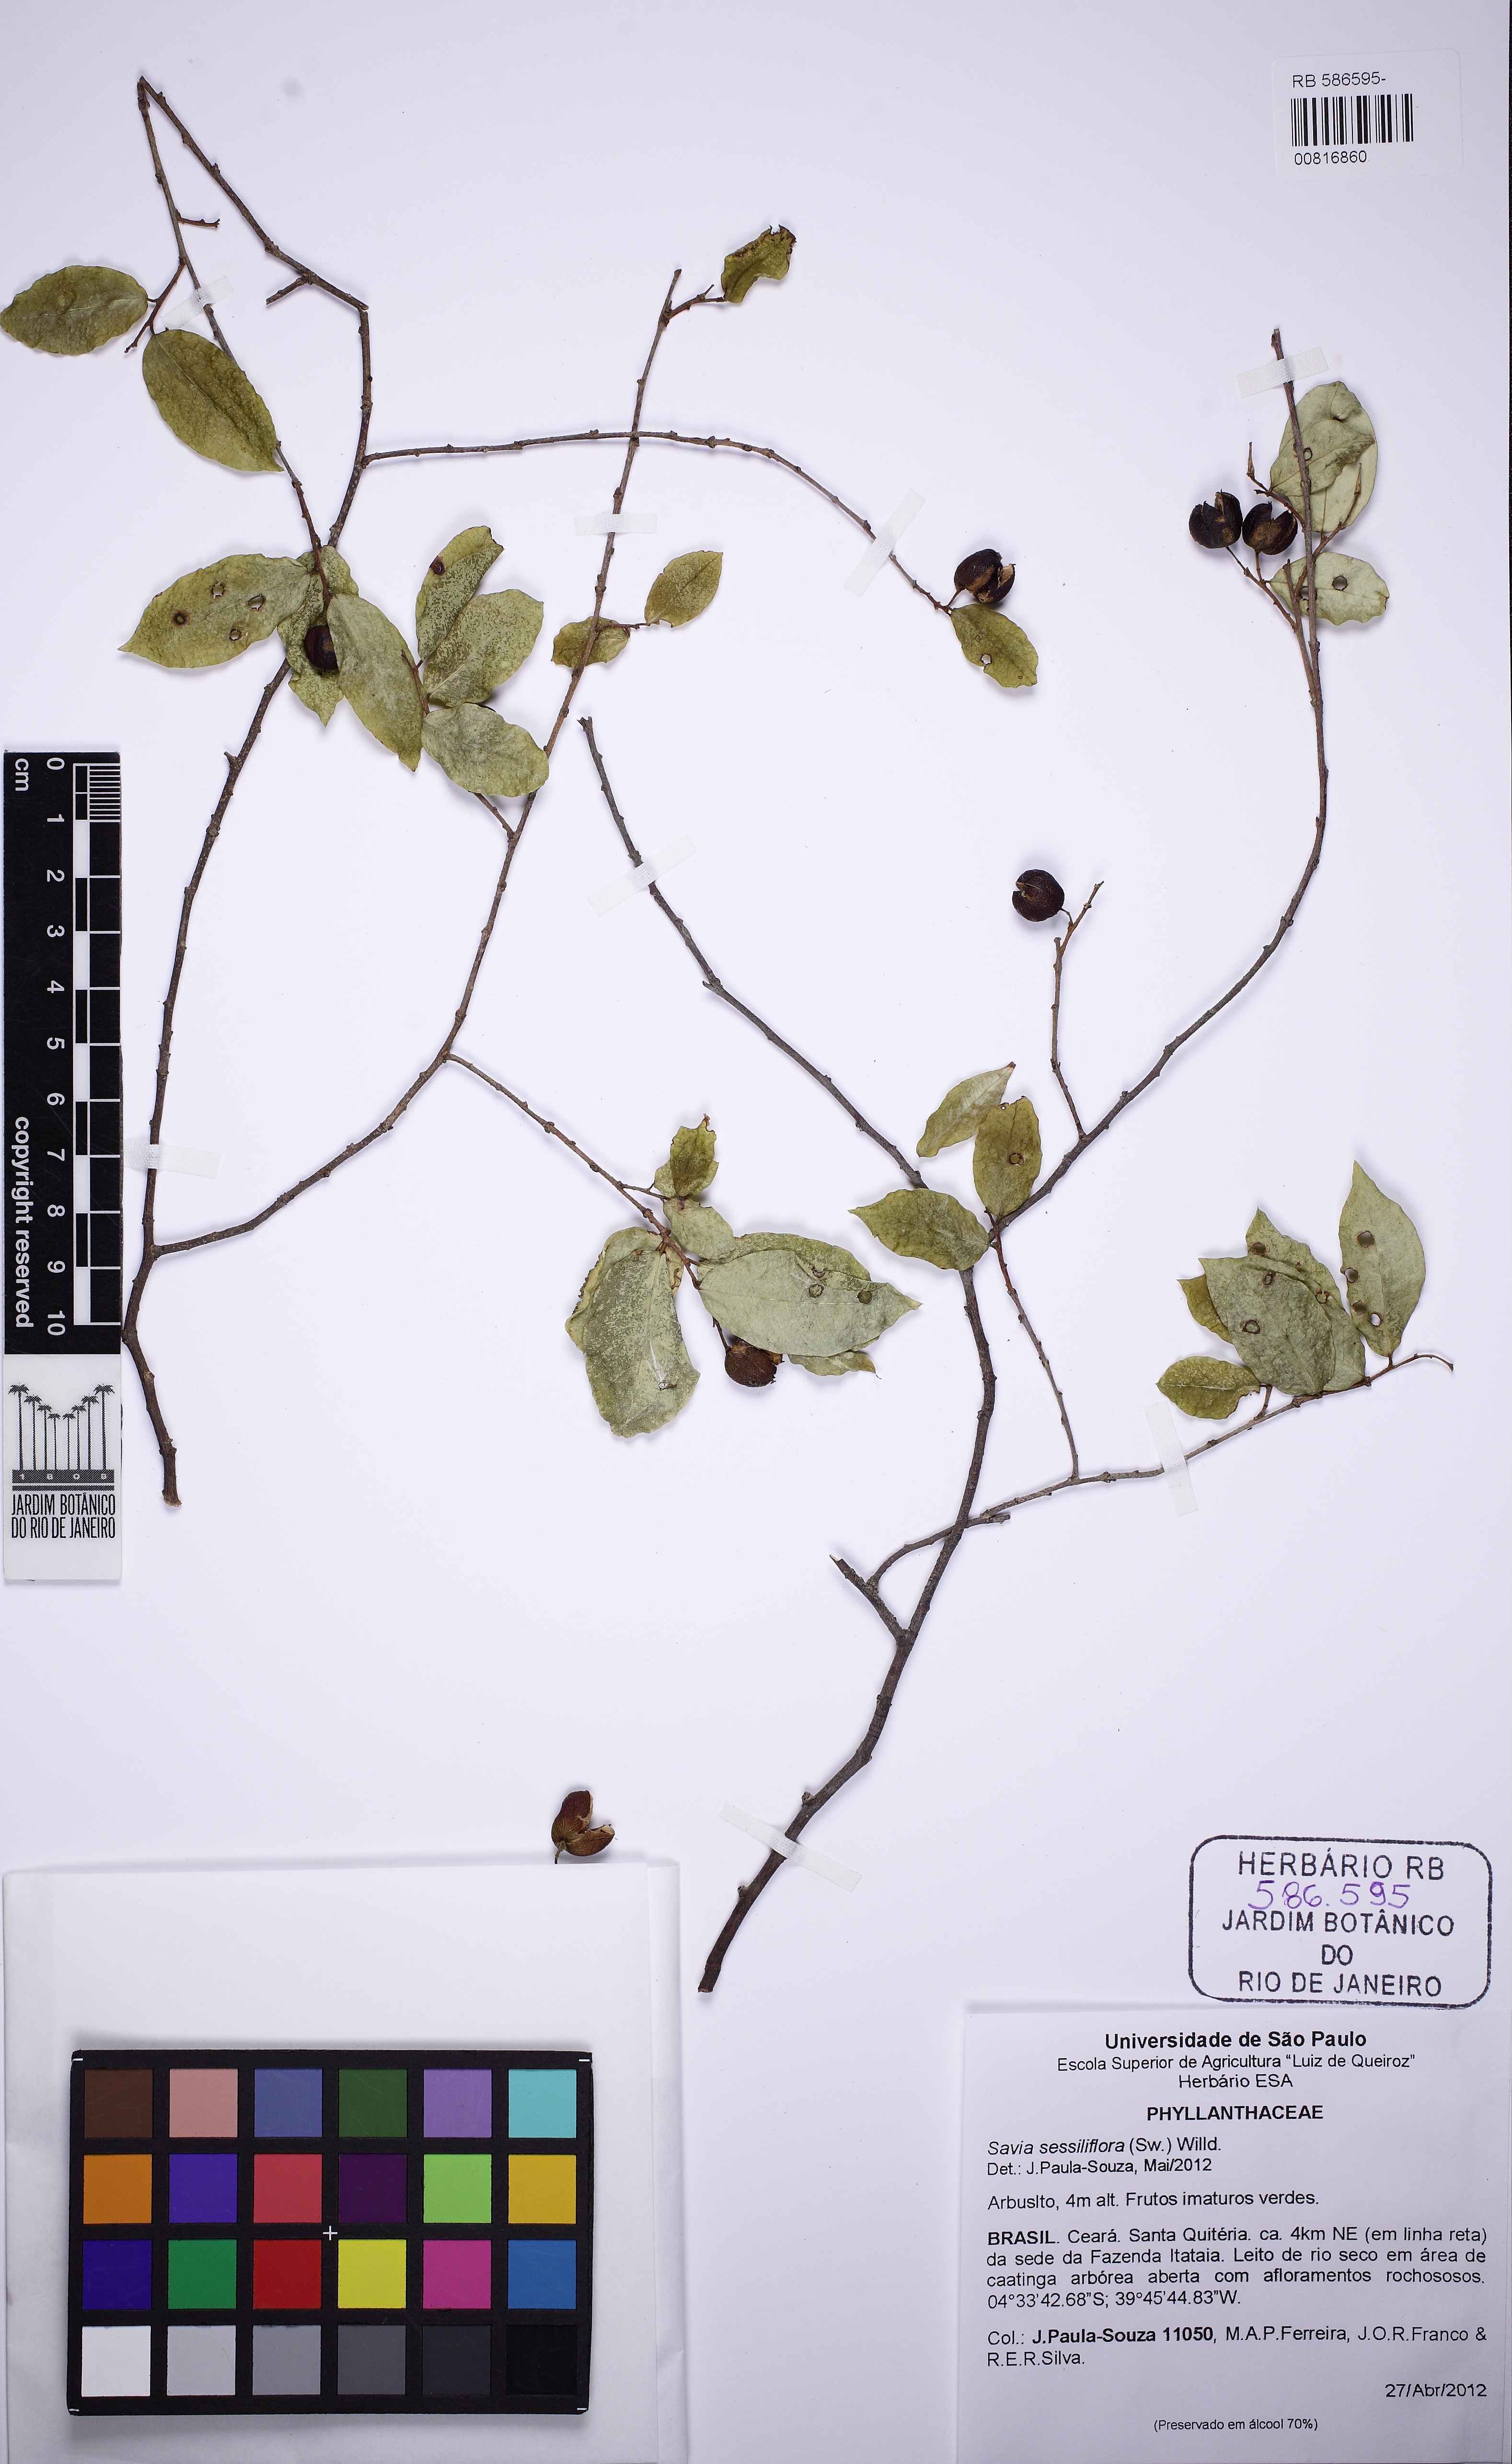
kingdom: Plantae
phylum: Tracheophyta
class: Magnoliopsida
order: Malpighiales
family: Phyllanthaceae
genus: Savia
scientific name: Savia sessiliflora
